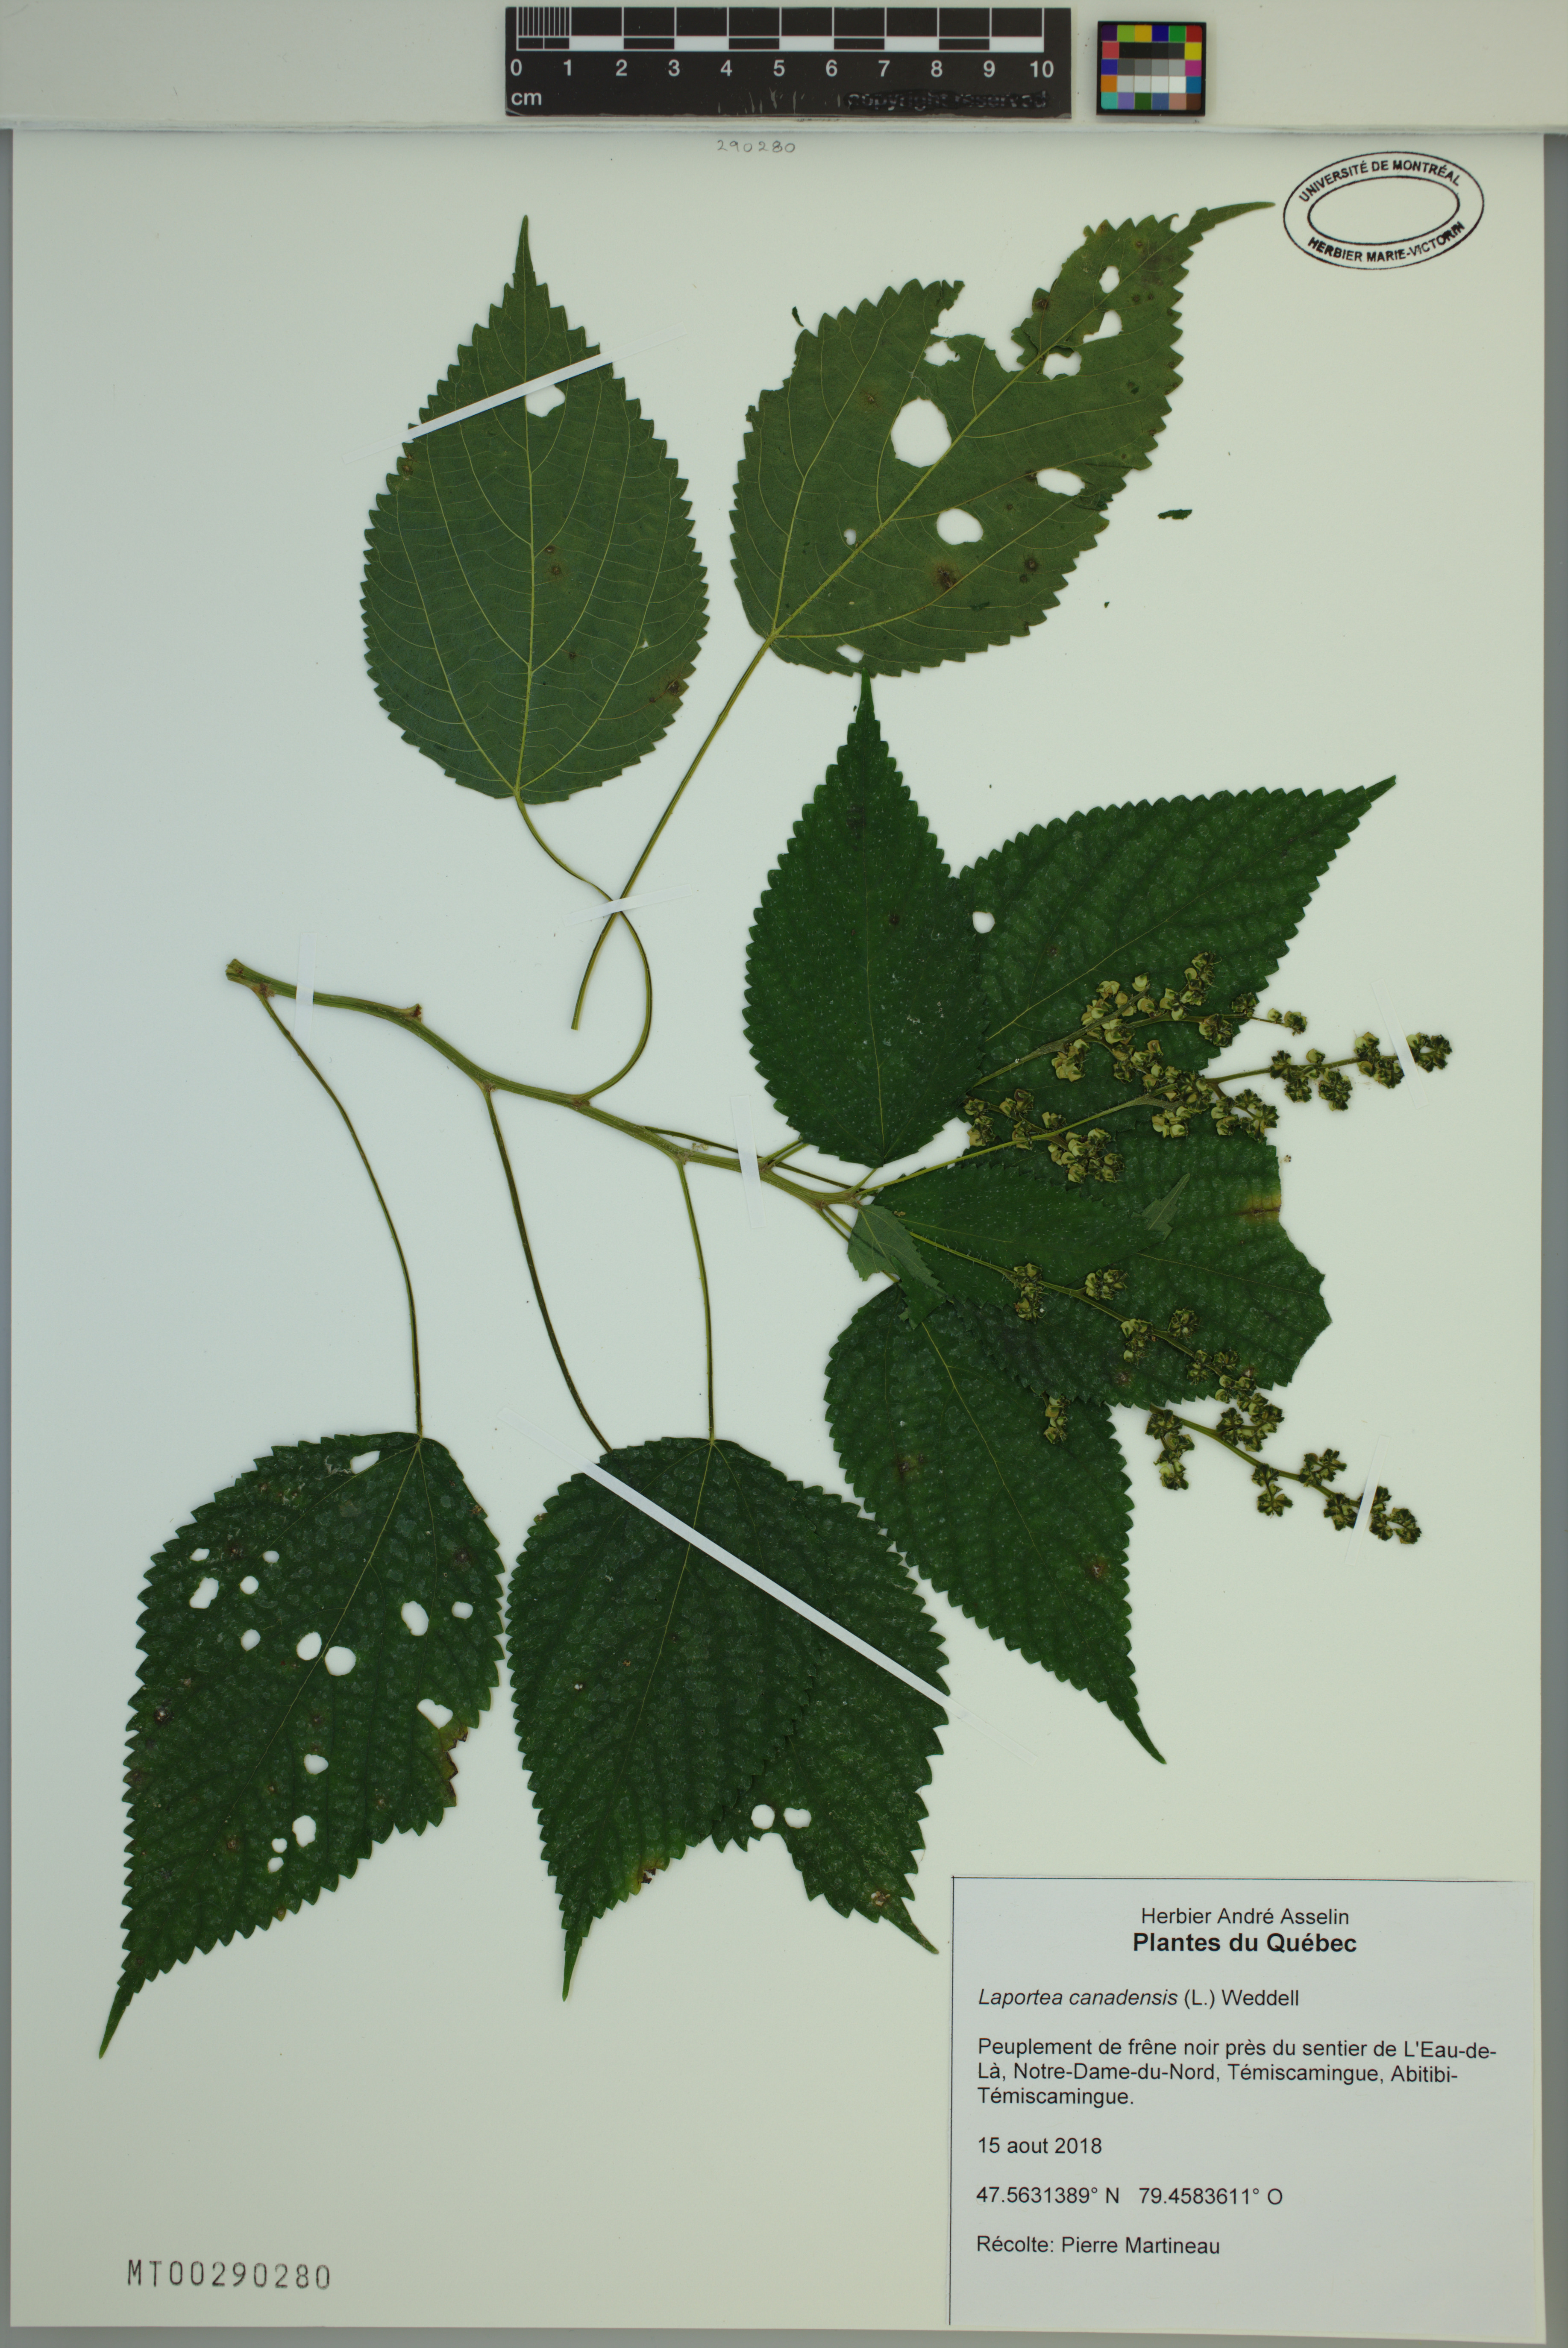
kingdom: Plantae
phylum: Tracheophyta
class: Magnoliopsida
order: Rosales
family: Urticaceae
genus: Laportea
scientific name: Laportea canadensis
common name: Canada nettle
